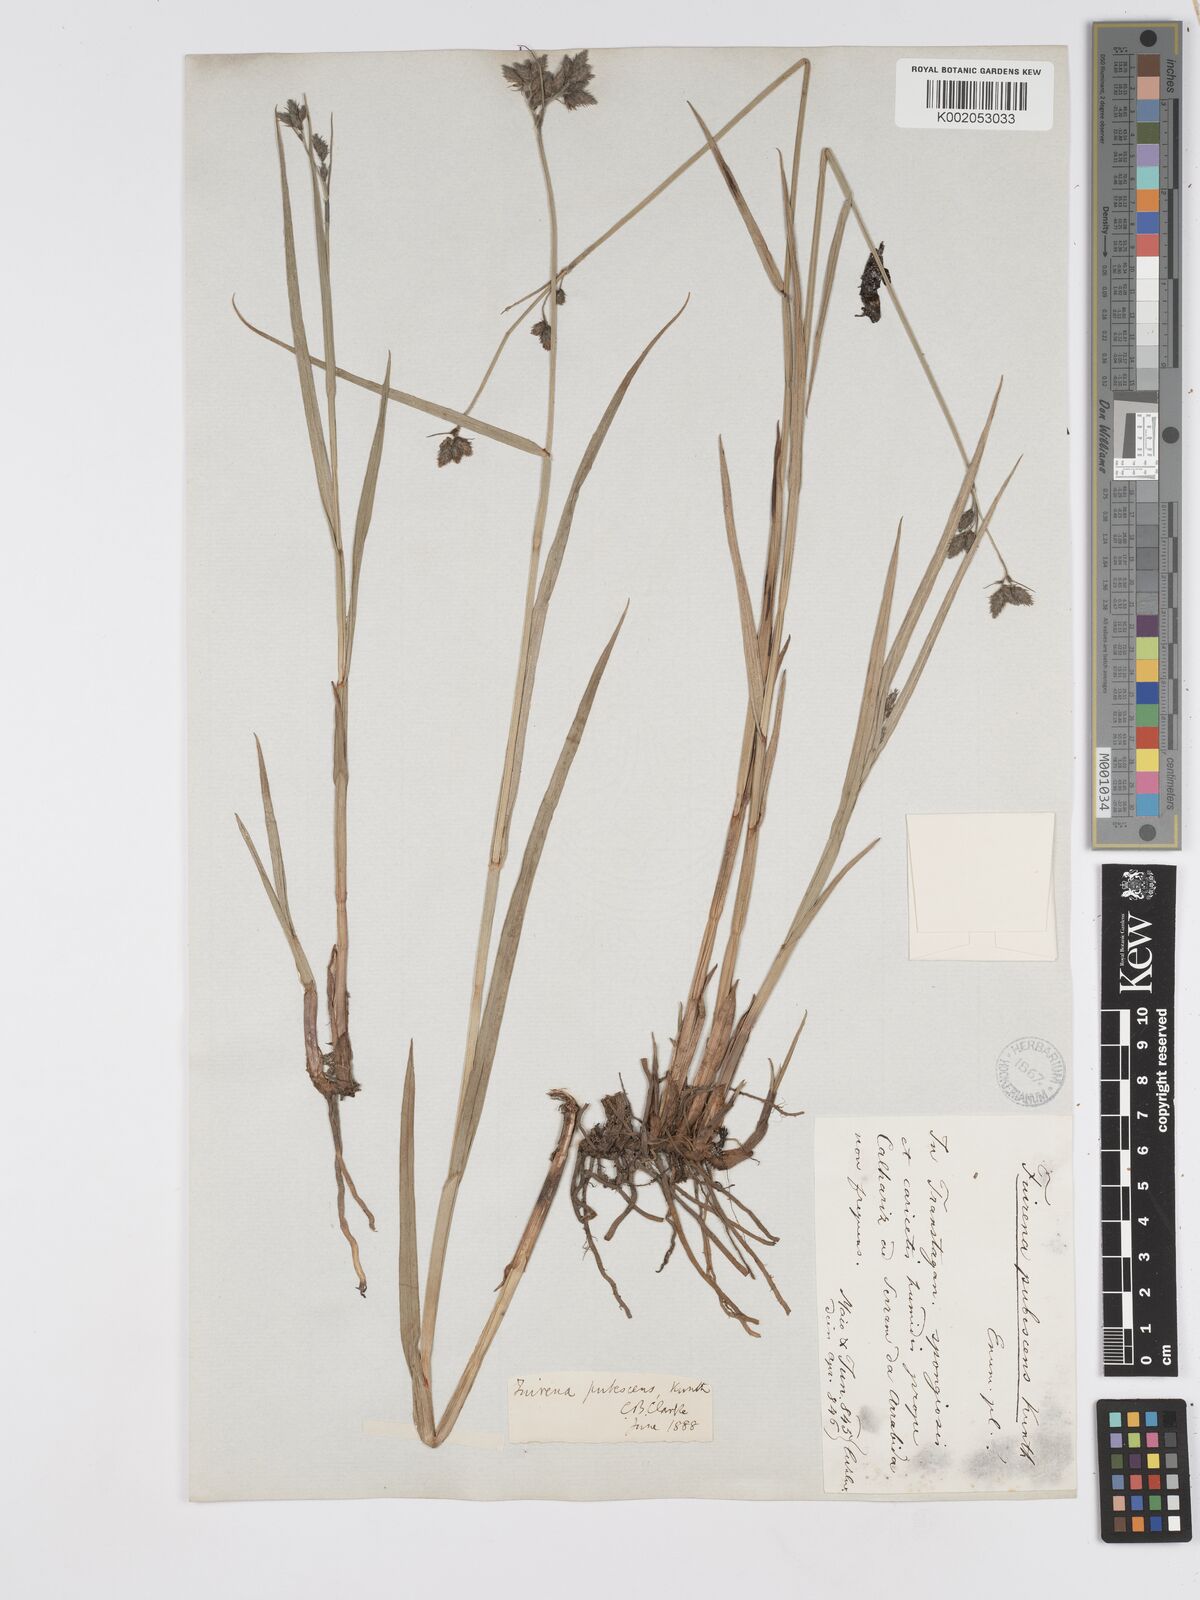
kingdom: Plantae
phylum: Tracheophyta
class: Liliopsida
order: Poales
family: Cyperaceae
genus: Fuirena
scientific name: Fuirena pubescens
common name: Hairy sedge
